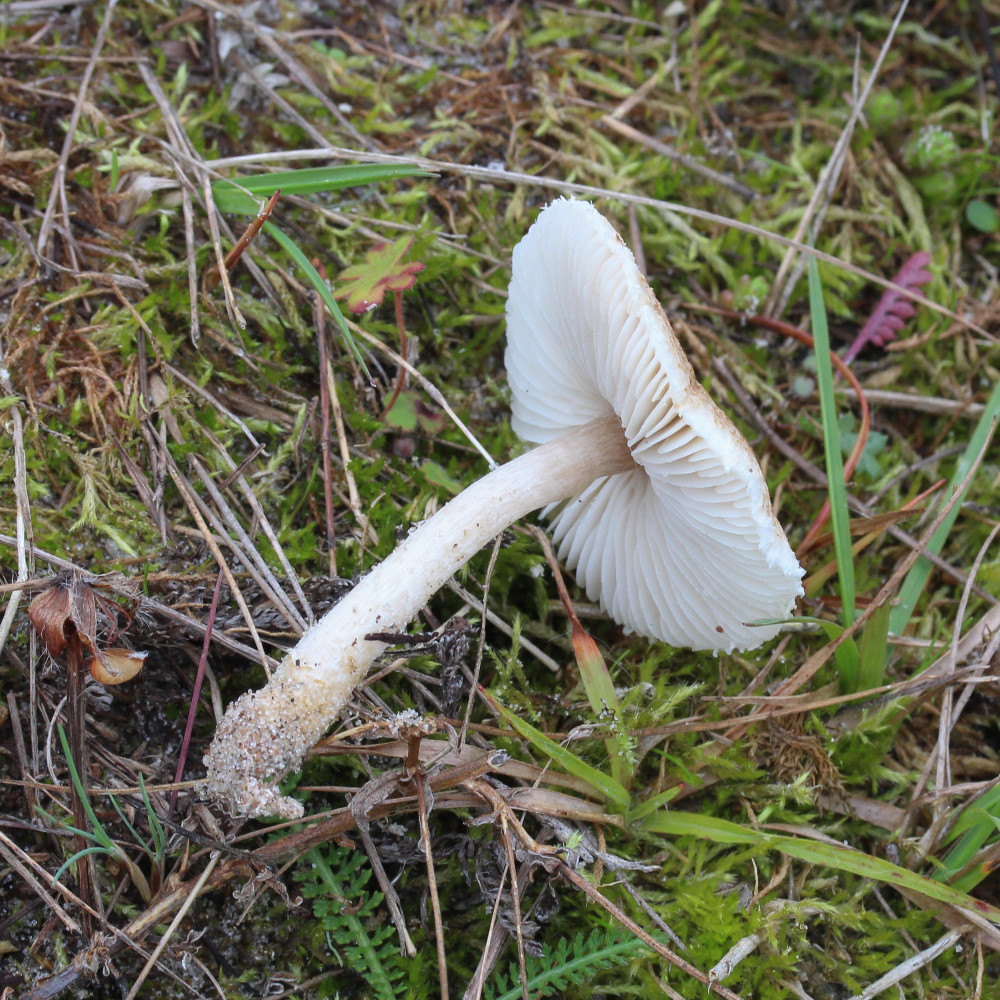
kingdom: Fungi
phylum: Basidiomycota
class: Agaricomycetes
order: Agaricales
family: Agaricaceae
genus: Lepiota
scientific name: Lepiota oreadiformis
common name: blegbrun parasolhat
